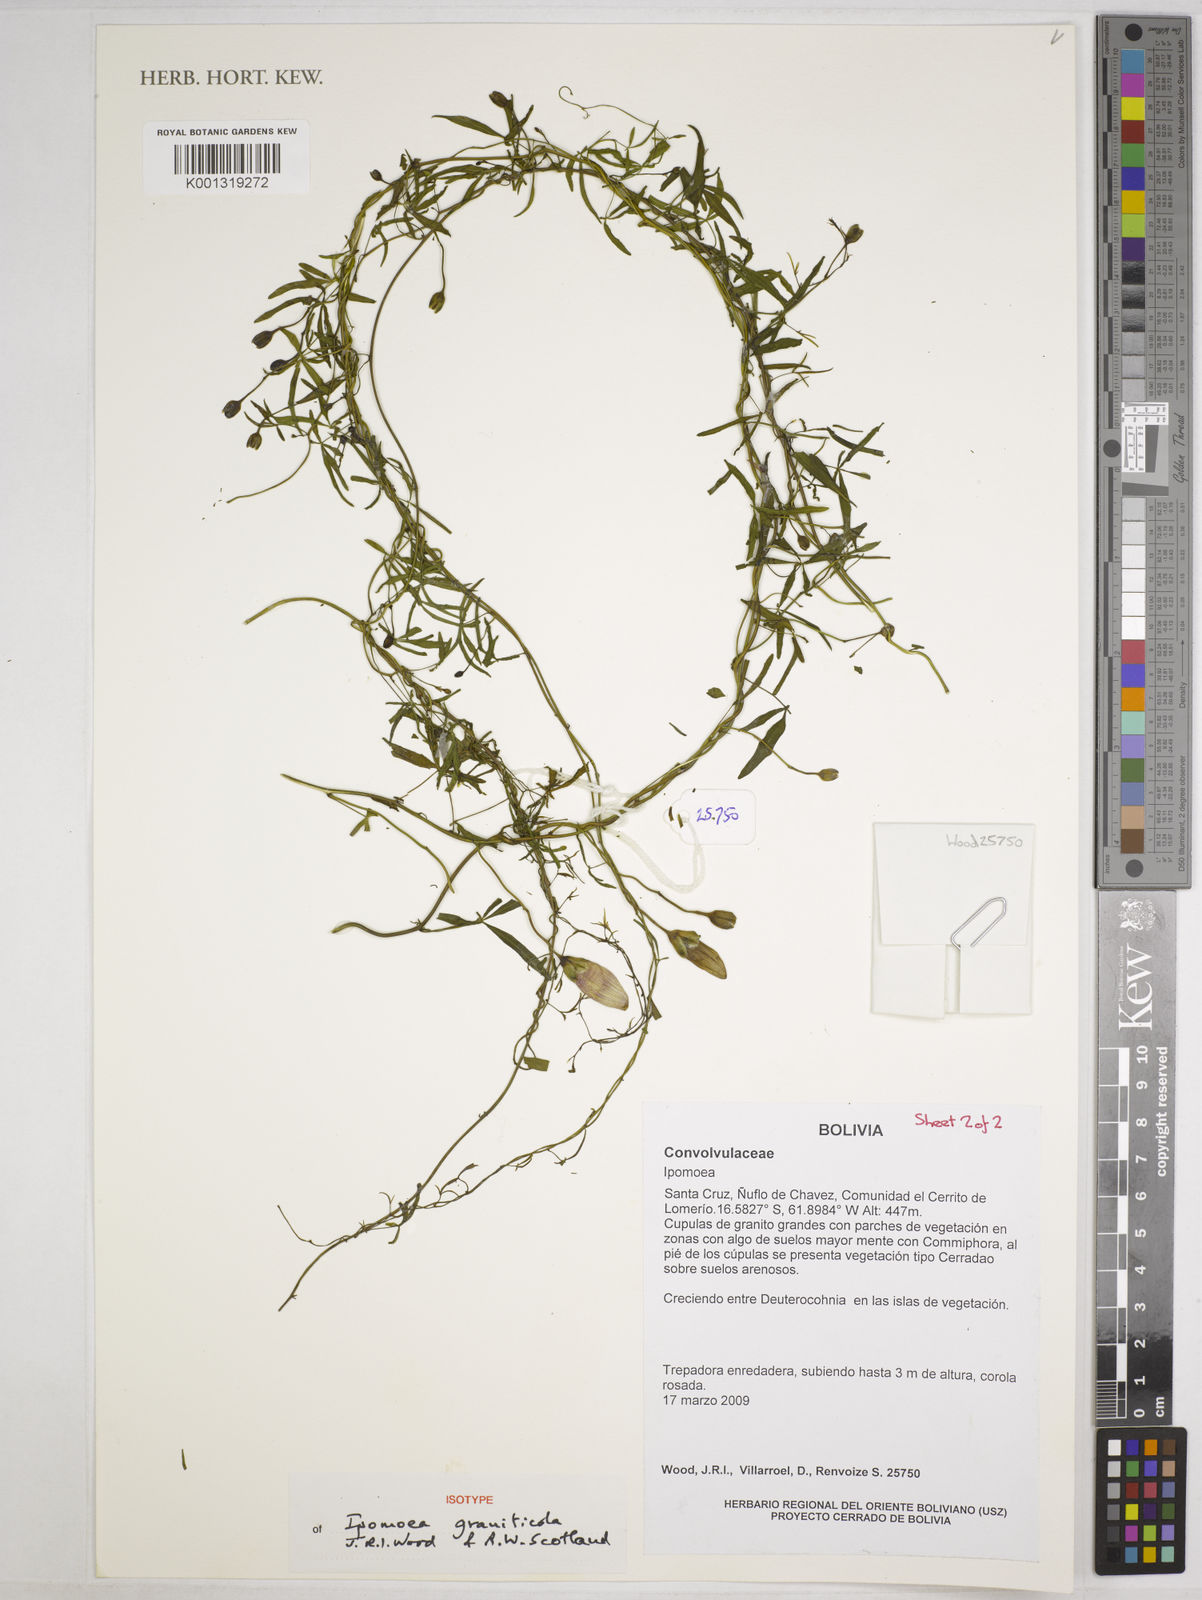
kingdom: Plantae
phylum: Tracheophyta
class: Magnoliopsida
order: Solanales
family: Convolvulaceae
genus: Ipomoea
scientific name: Ipomoea graniticola
